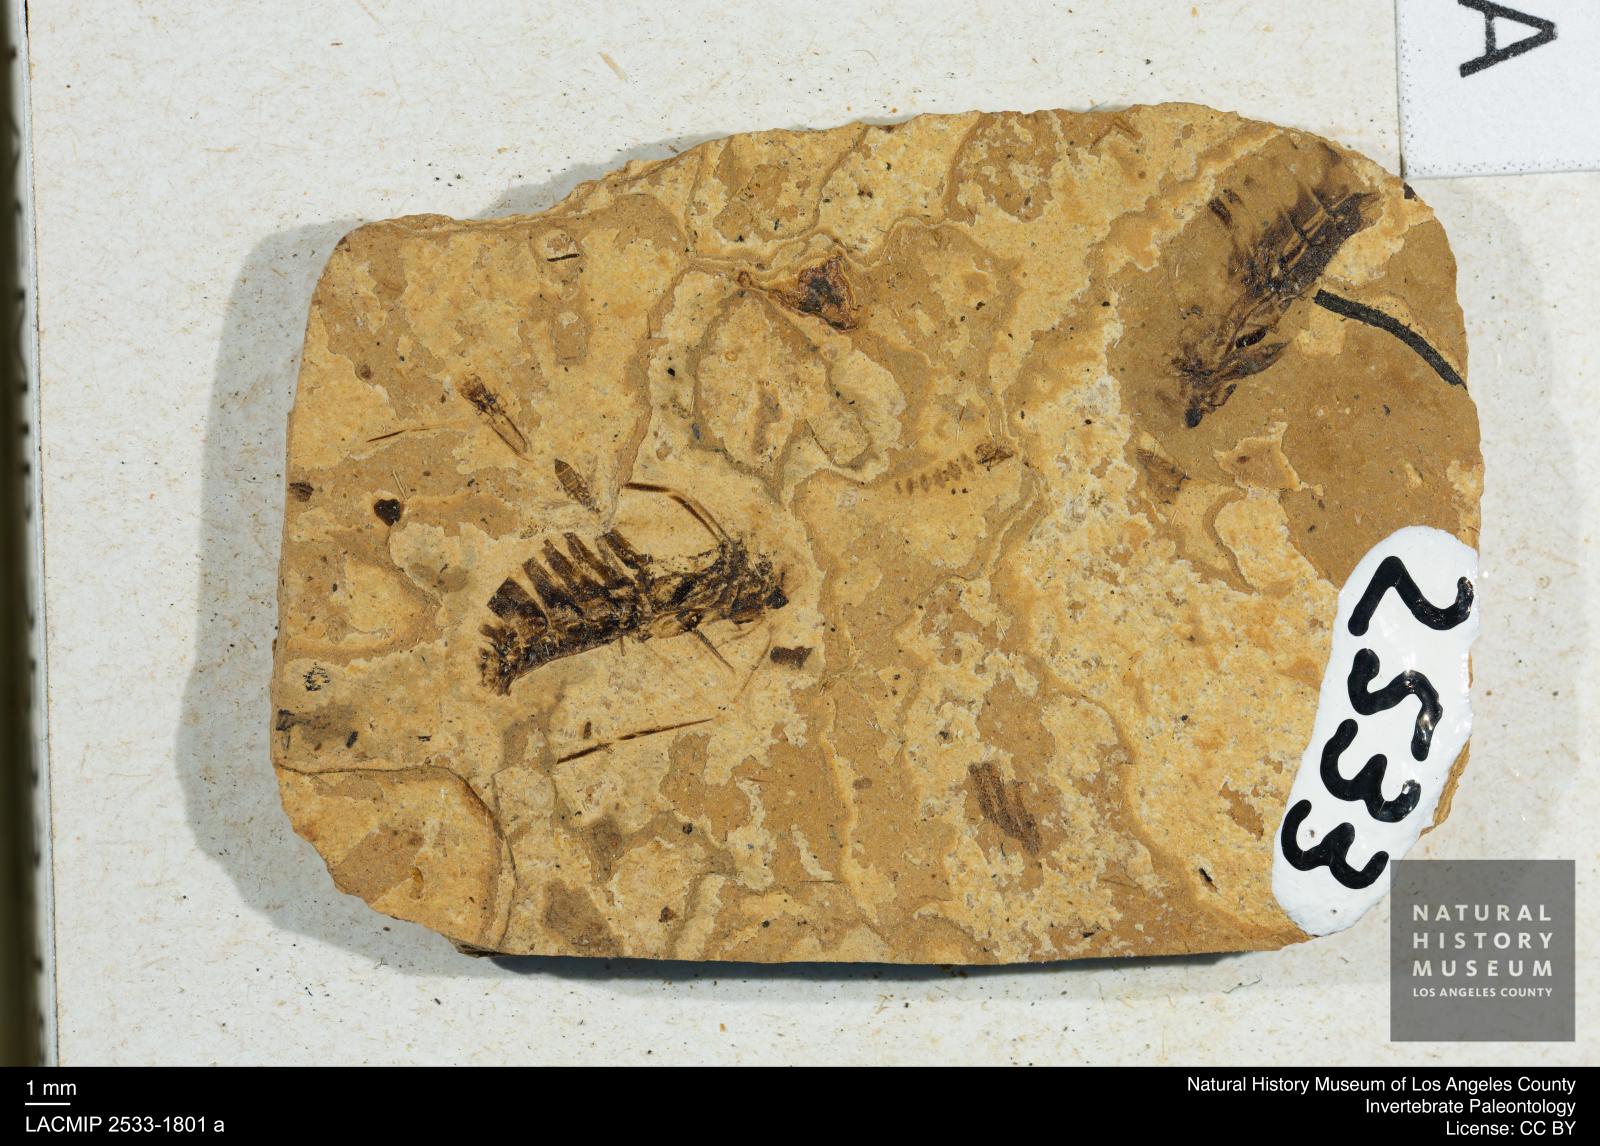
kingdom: Animalia
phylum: Arthropoda
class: Insecta
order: Hemiptera
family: Notonectidae
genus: Anisops
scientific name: Anisops Notonecta deichmuelleri
